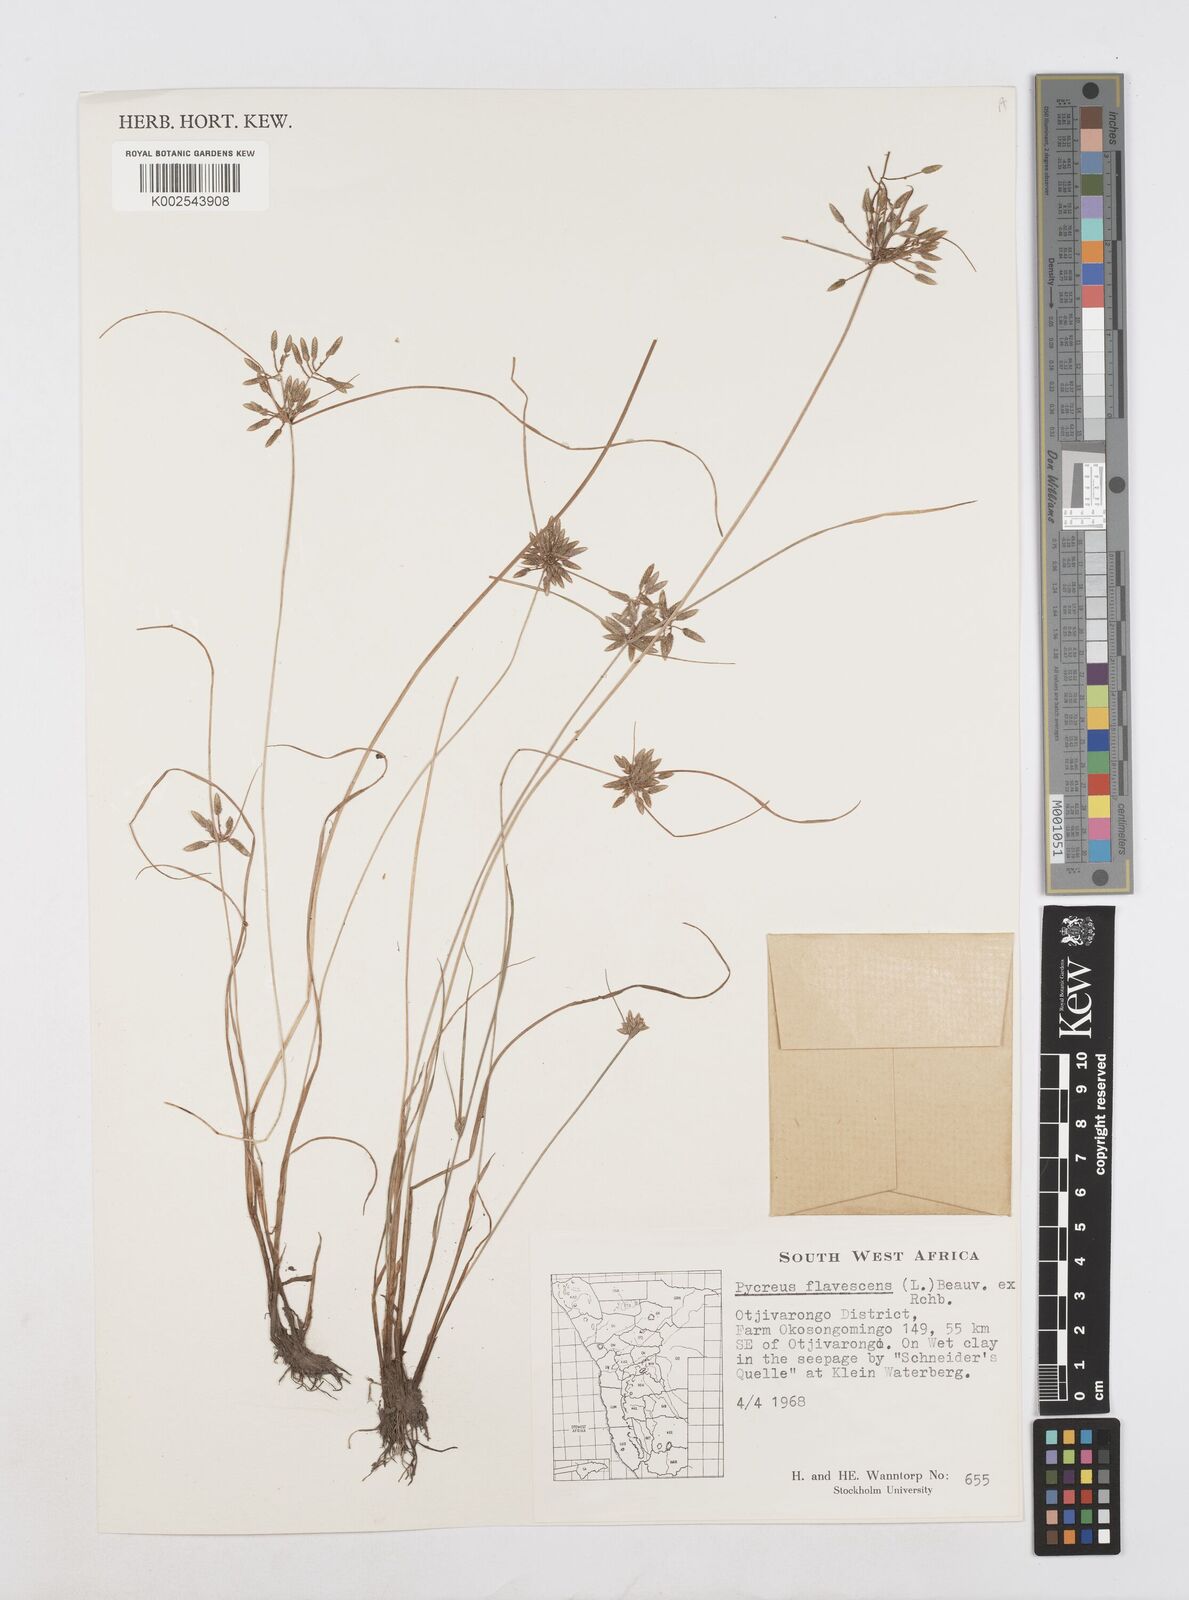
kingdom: Plantae
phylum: Tracheophyta
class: Liliopsida
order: Poales
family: Cyperaceae
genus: Cyperus
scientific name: Cyperus flavescens
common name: Yellow galingale
